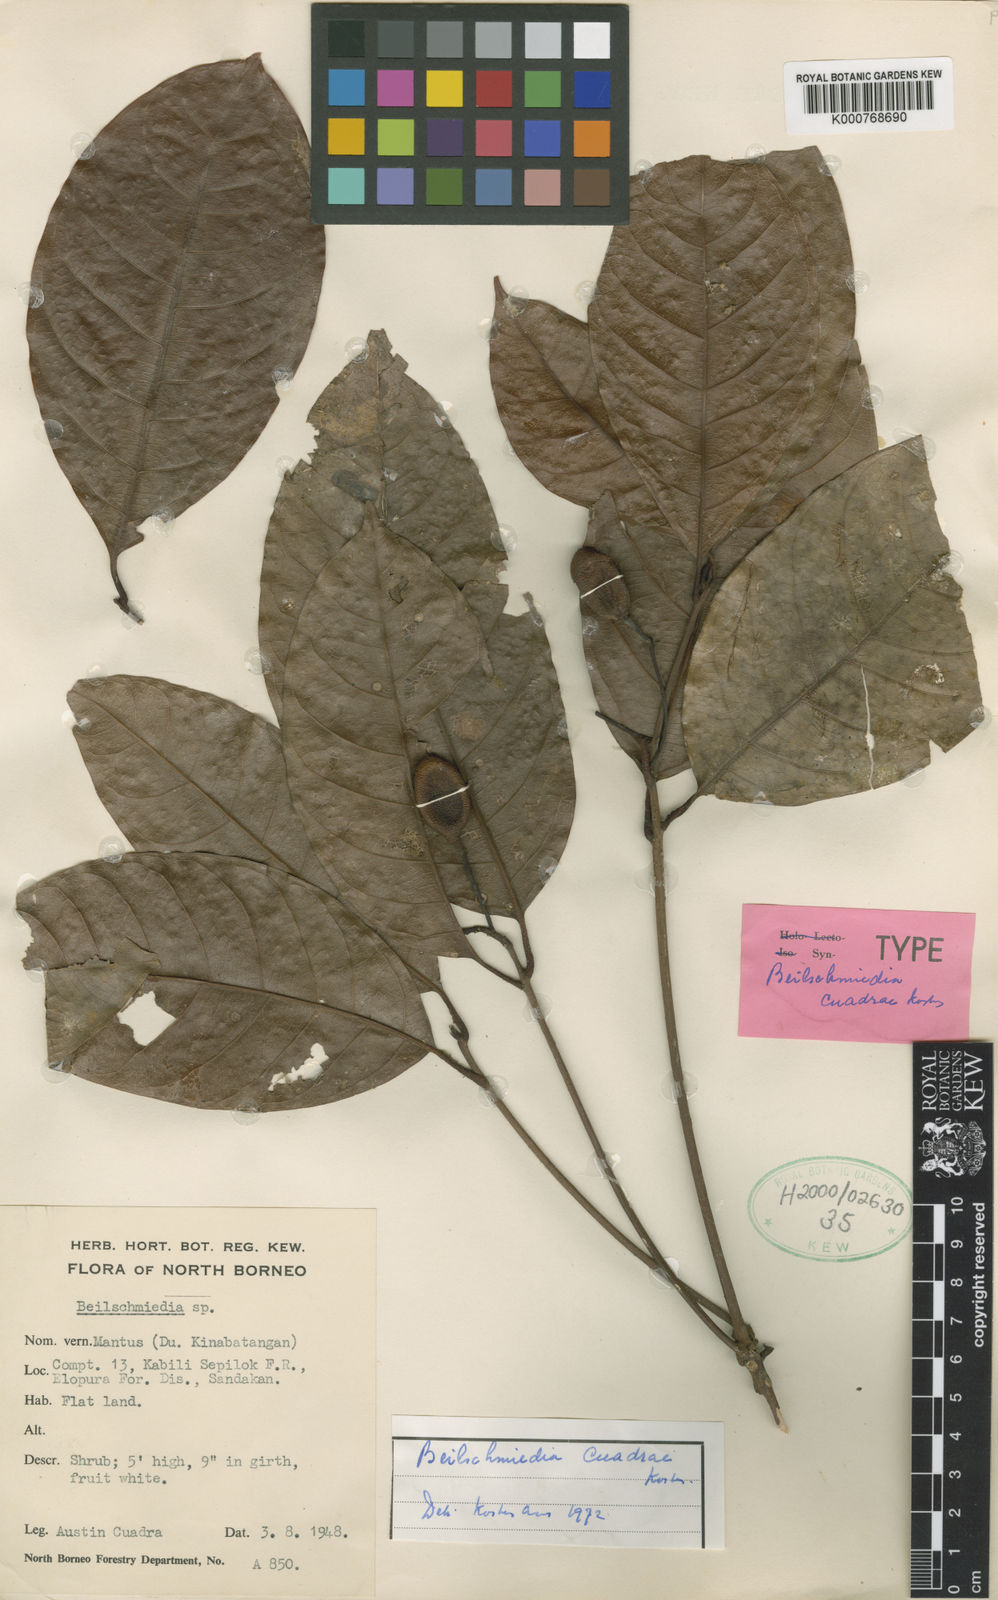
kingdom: Plantae
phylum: Tracheophyta
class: Magnoliopsida
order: Laurales
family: Lauraceae
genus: Beilschmiedia
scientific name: Beilschmiedia
